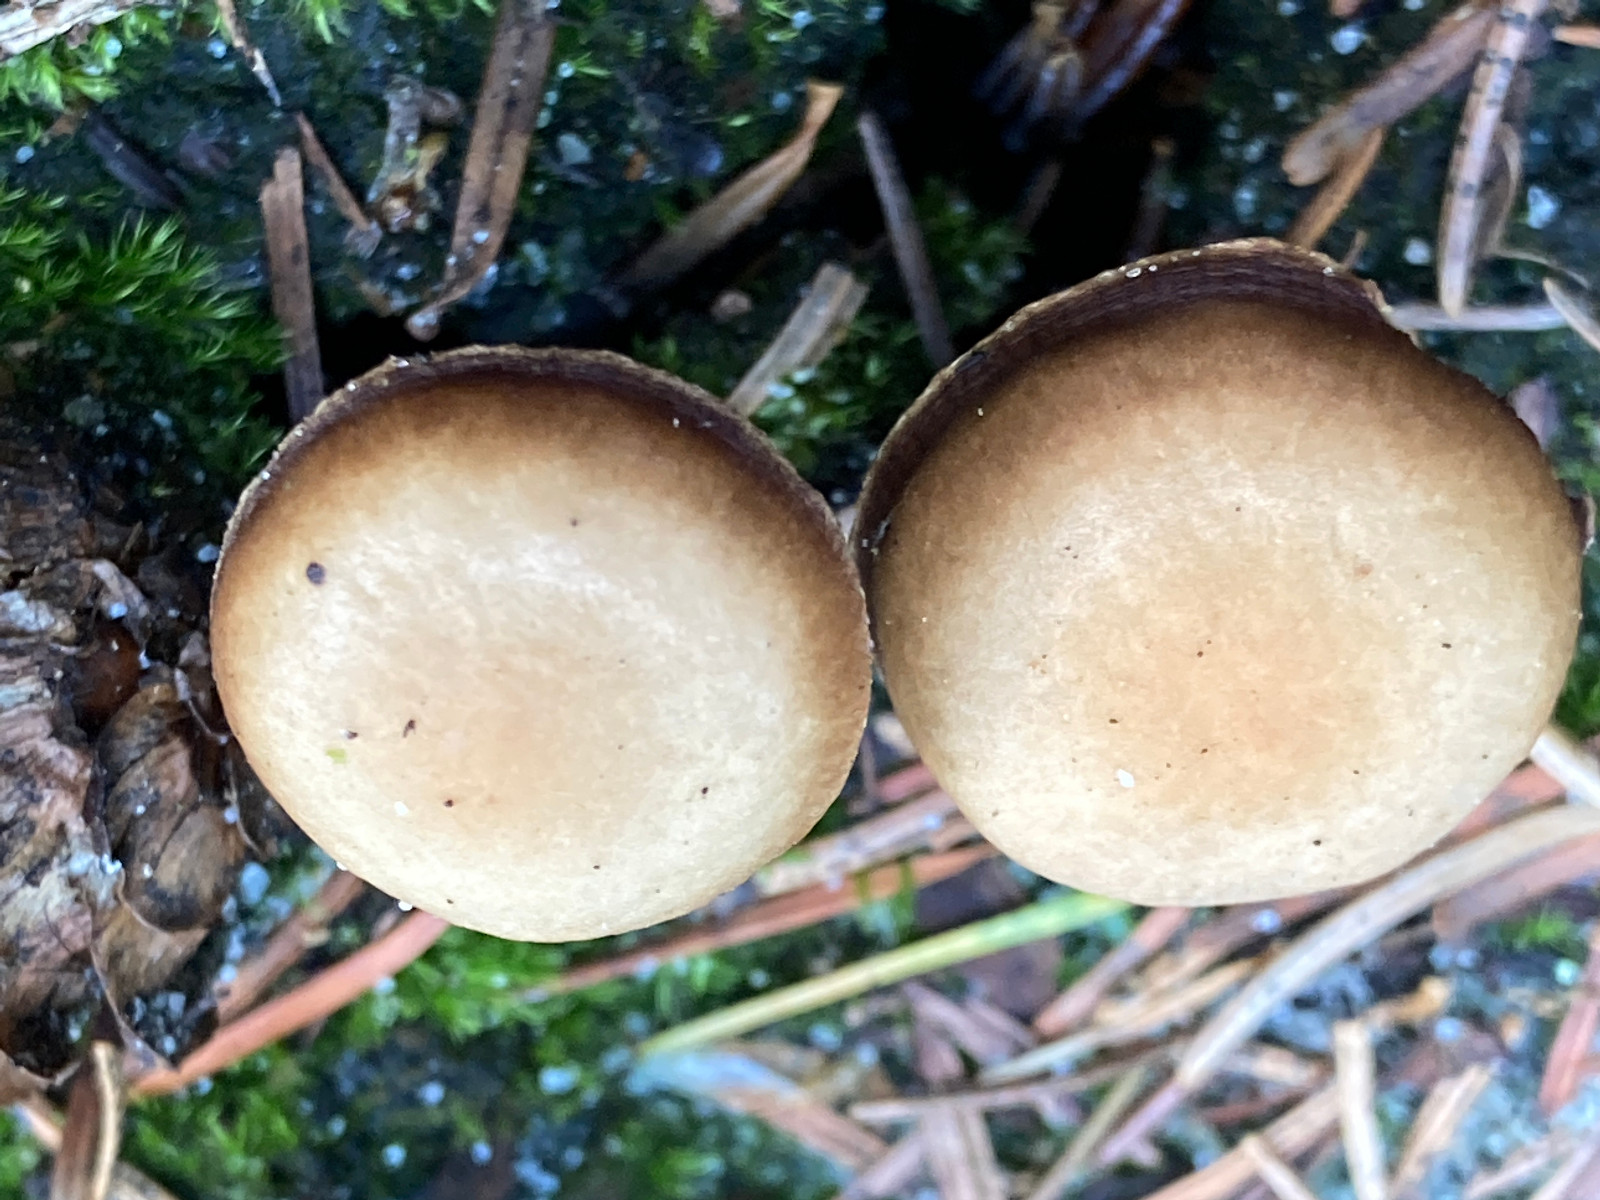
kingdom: Fungi
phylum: Basidiomycota
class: Agaricomycetes
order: Agaricales
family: Strophariaceae
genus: Bogbodia
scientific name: Bogbodia uda
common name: tørve-svovlhat
